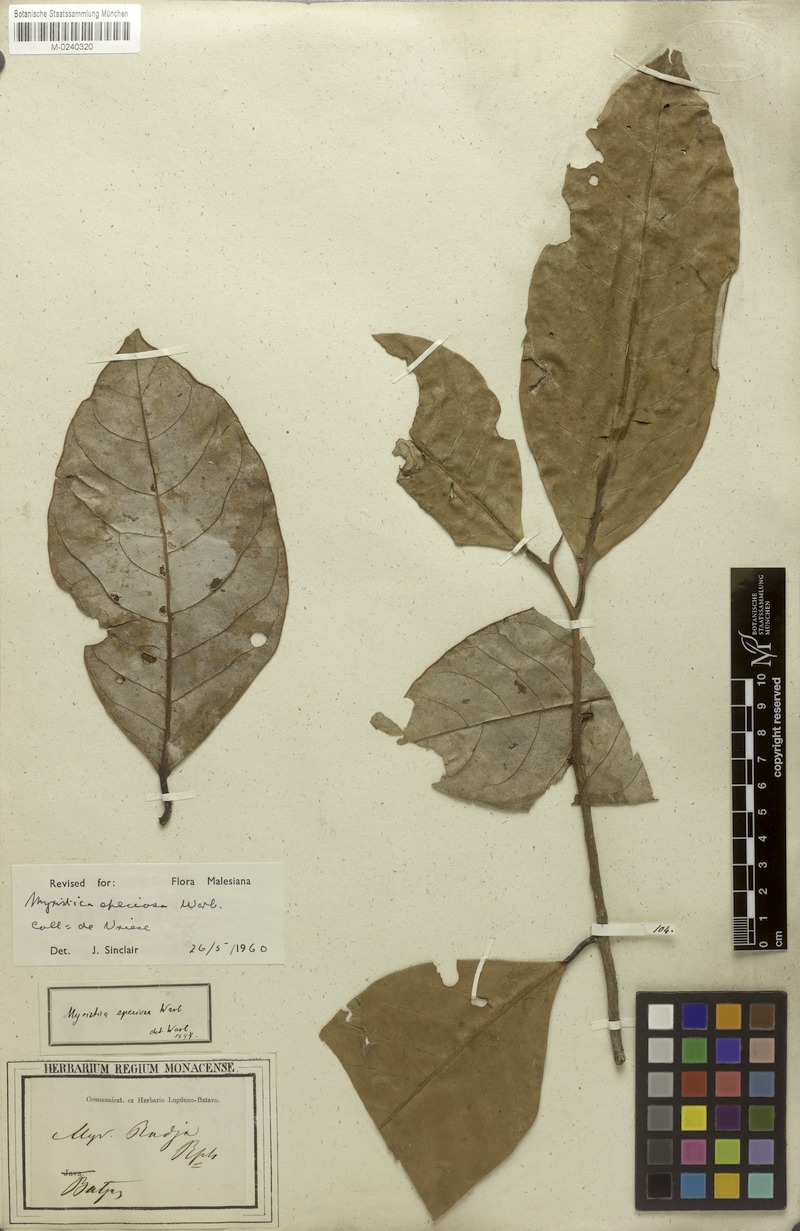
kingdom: Plantae
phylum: Tracheophyta
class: Magnoliopsida
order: Magnoliales
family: Myristicaceae
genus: Myristica
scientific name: Myristica succedanea
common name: Halmahera nutmeg
